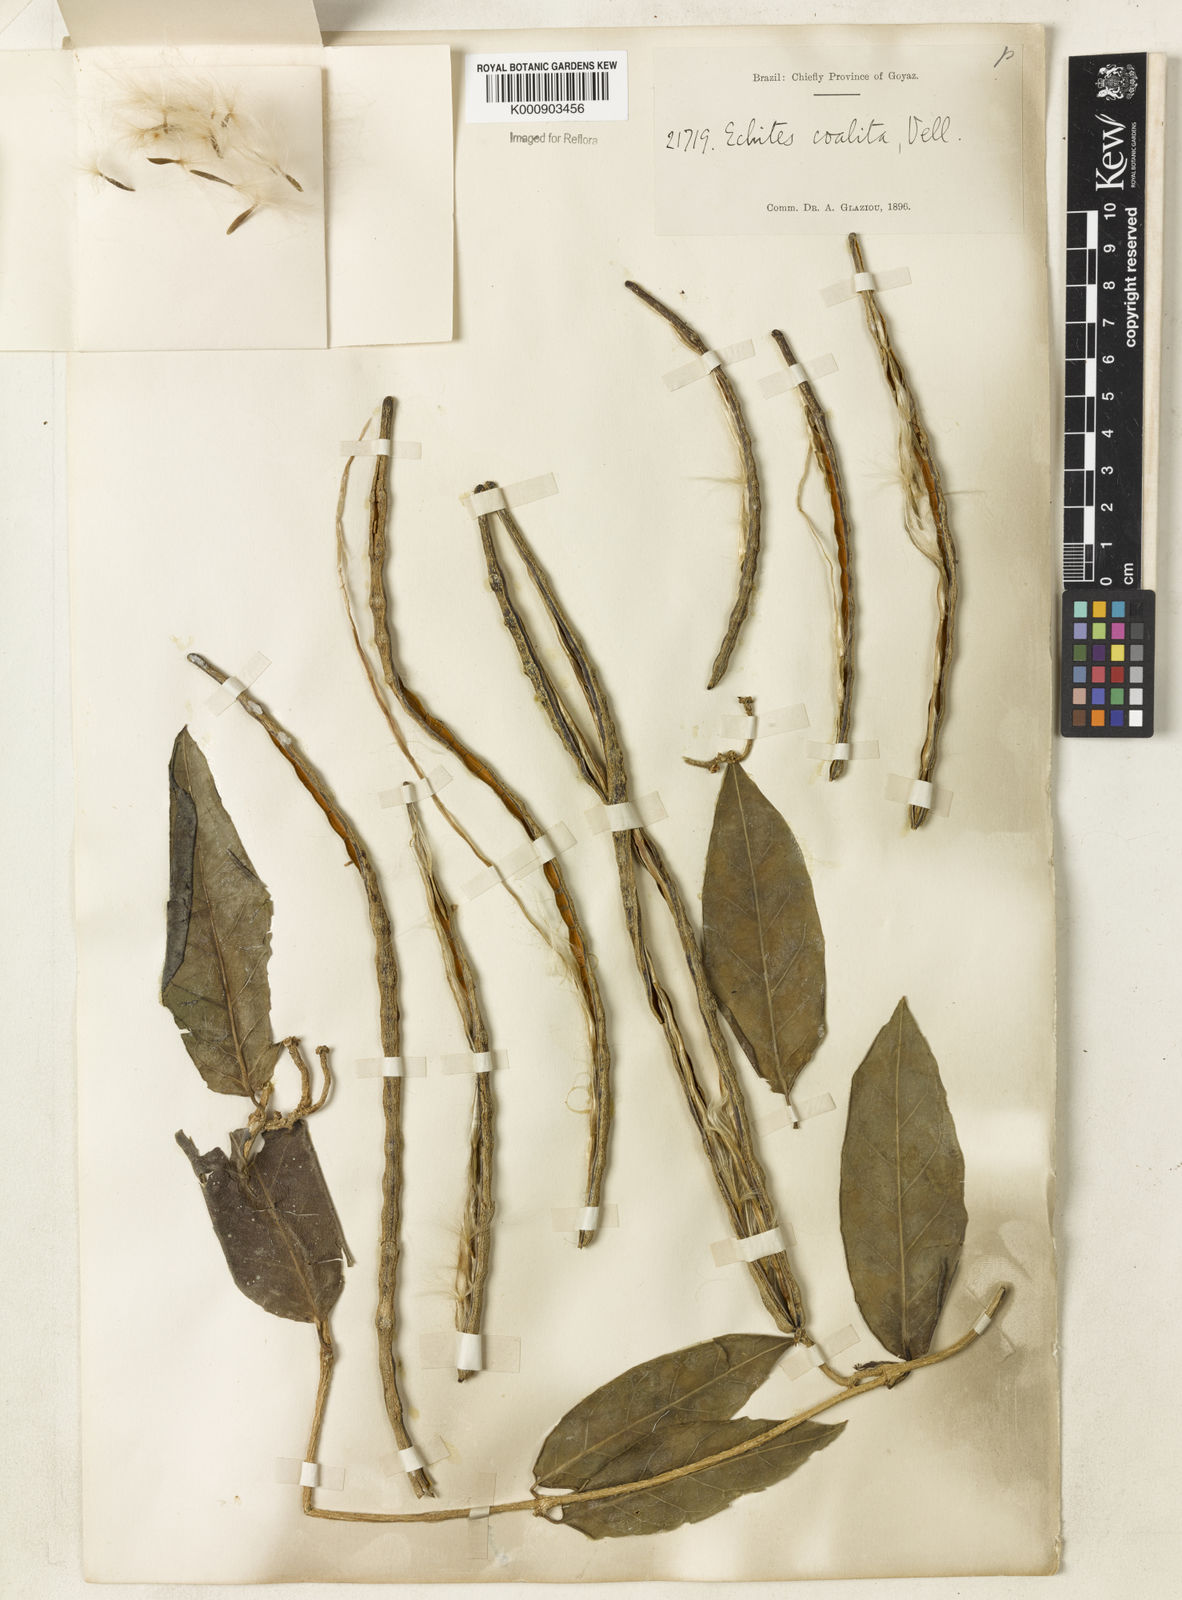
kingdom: Plantae
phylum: Tracheophyta
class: Magnoliopsida
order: Gentianales
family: Apocynaceae
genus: Prestonia
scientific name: Prestonia coalita
